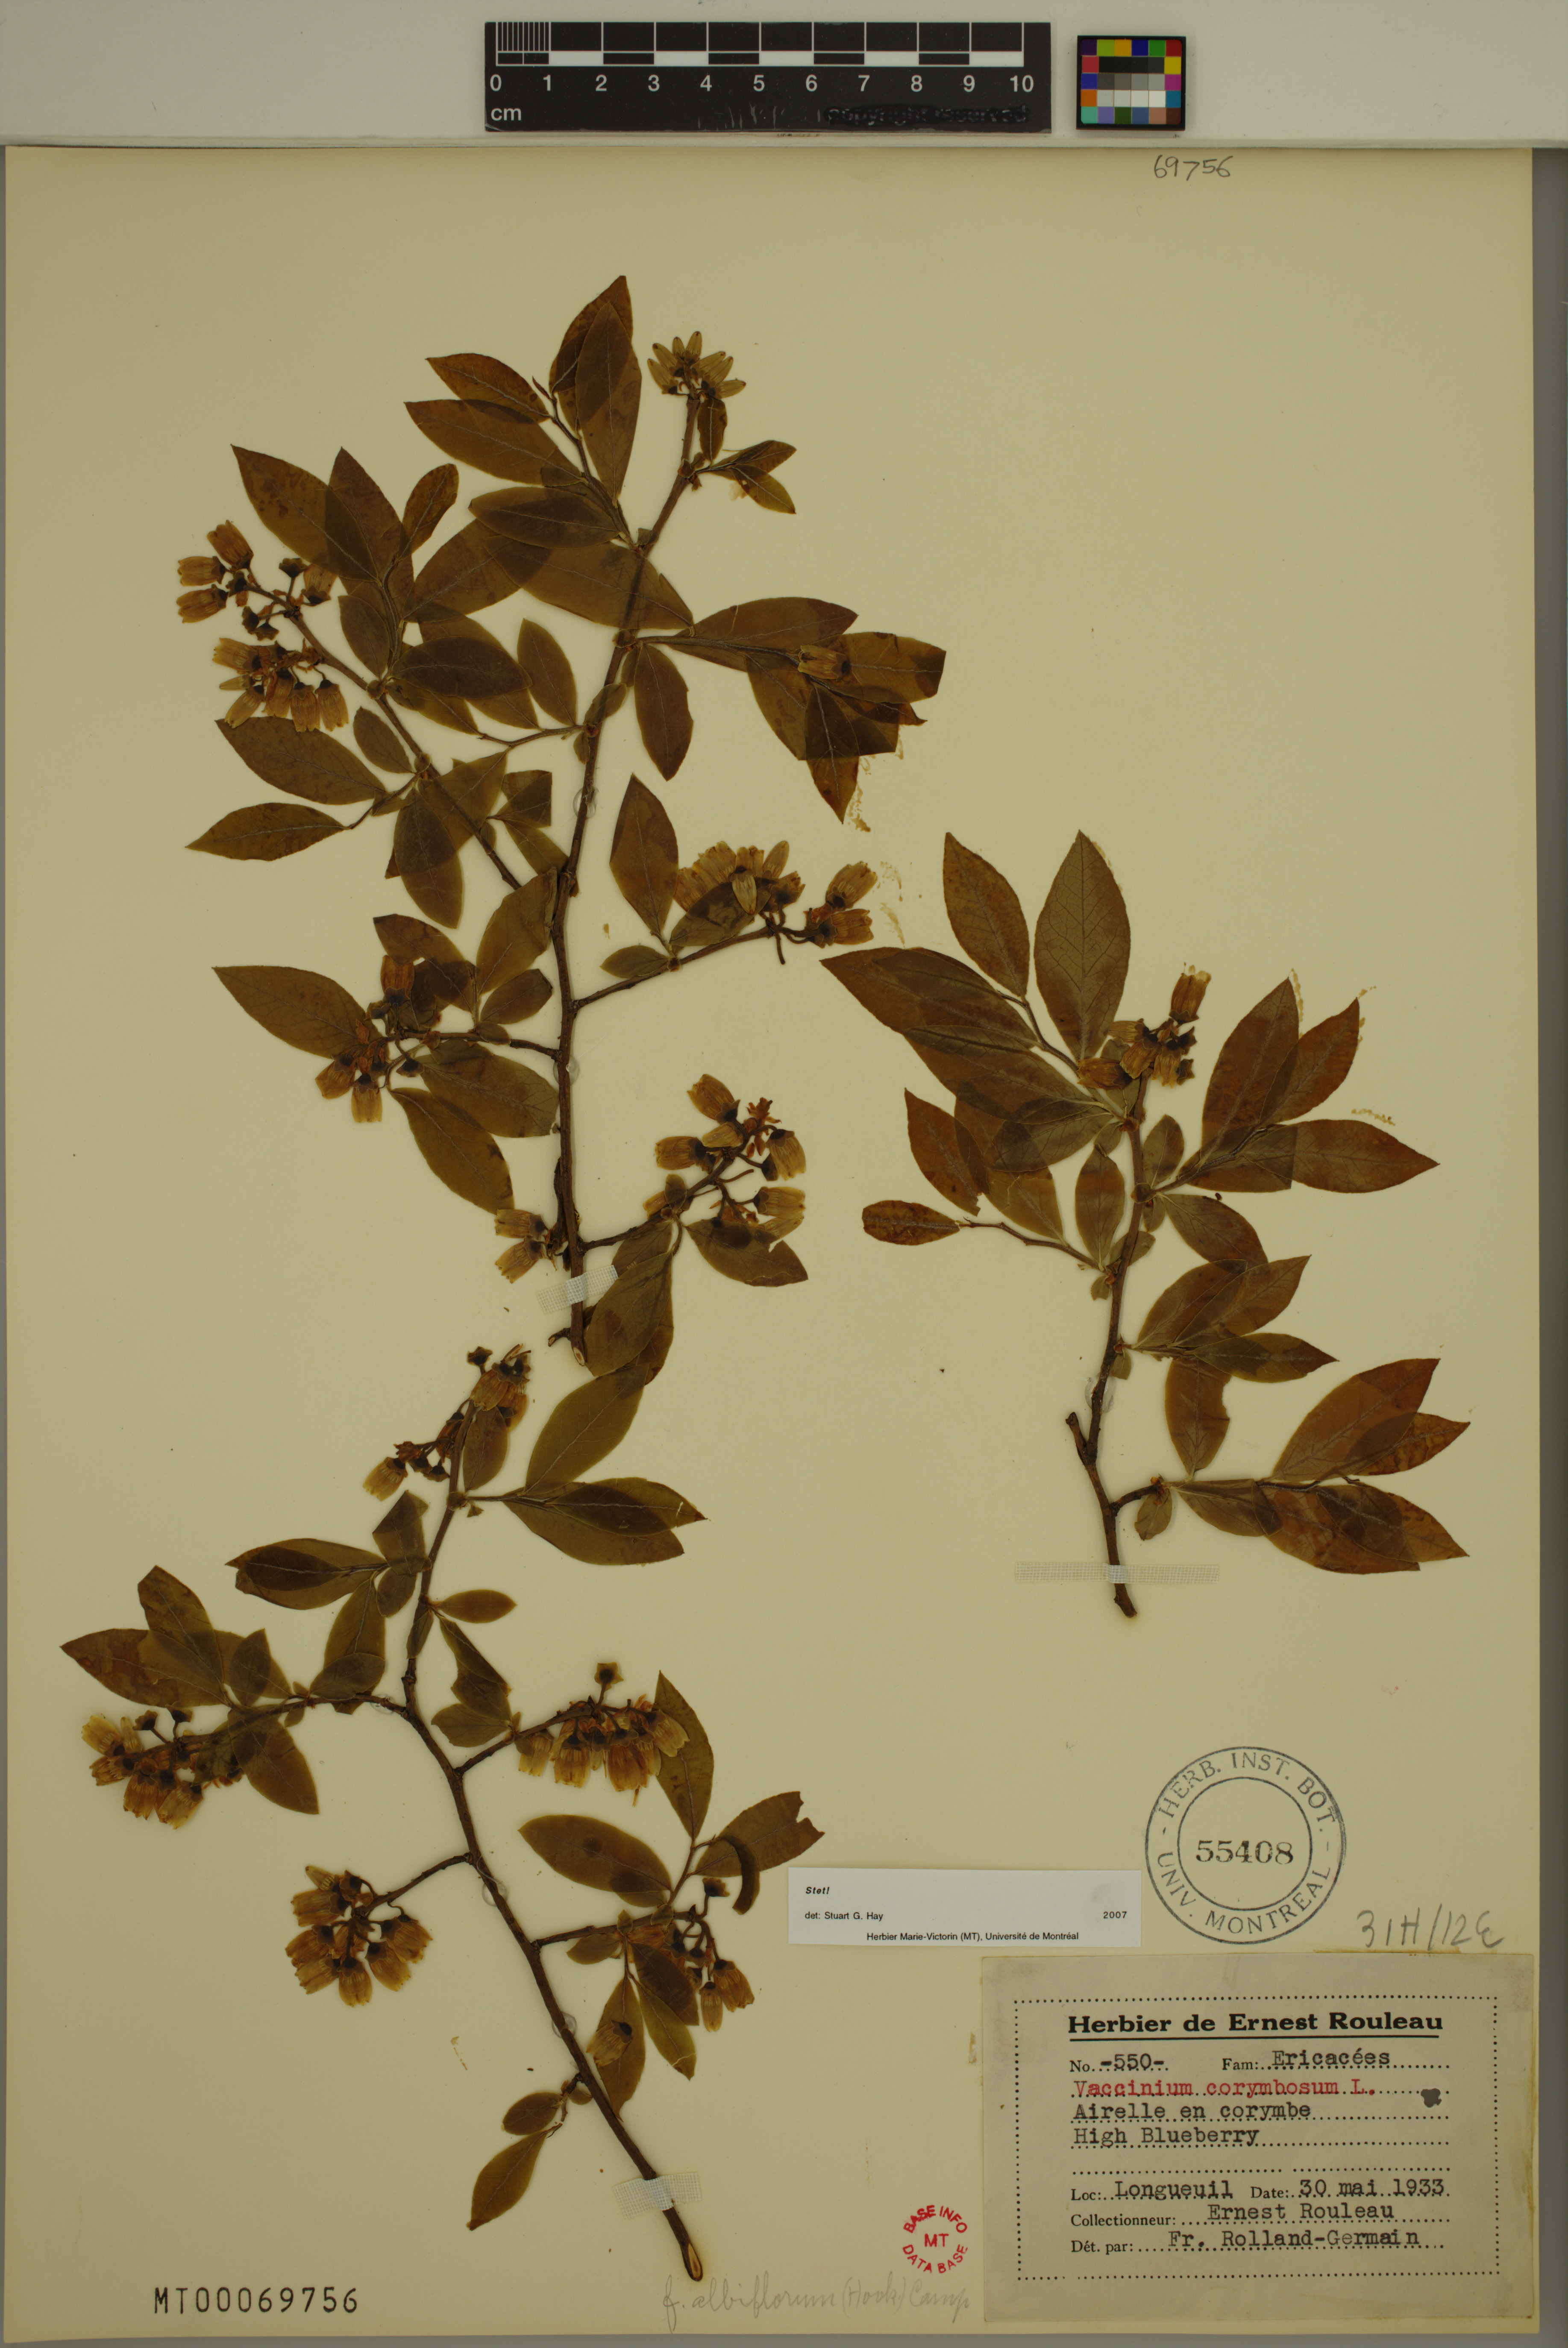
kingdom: Plantae
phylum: Tracheophyta
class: Magnoliopsida
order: Ericales
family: Ericaceae
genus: Vaccinium
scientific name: Vaccinium corymbosum
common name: Blueberry
